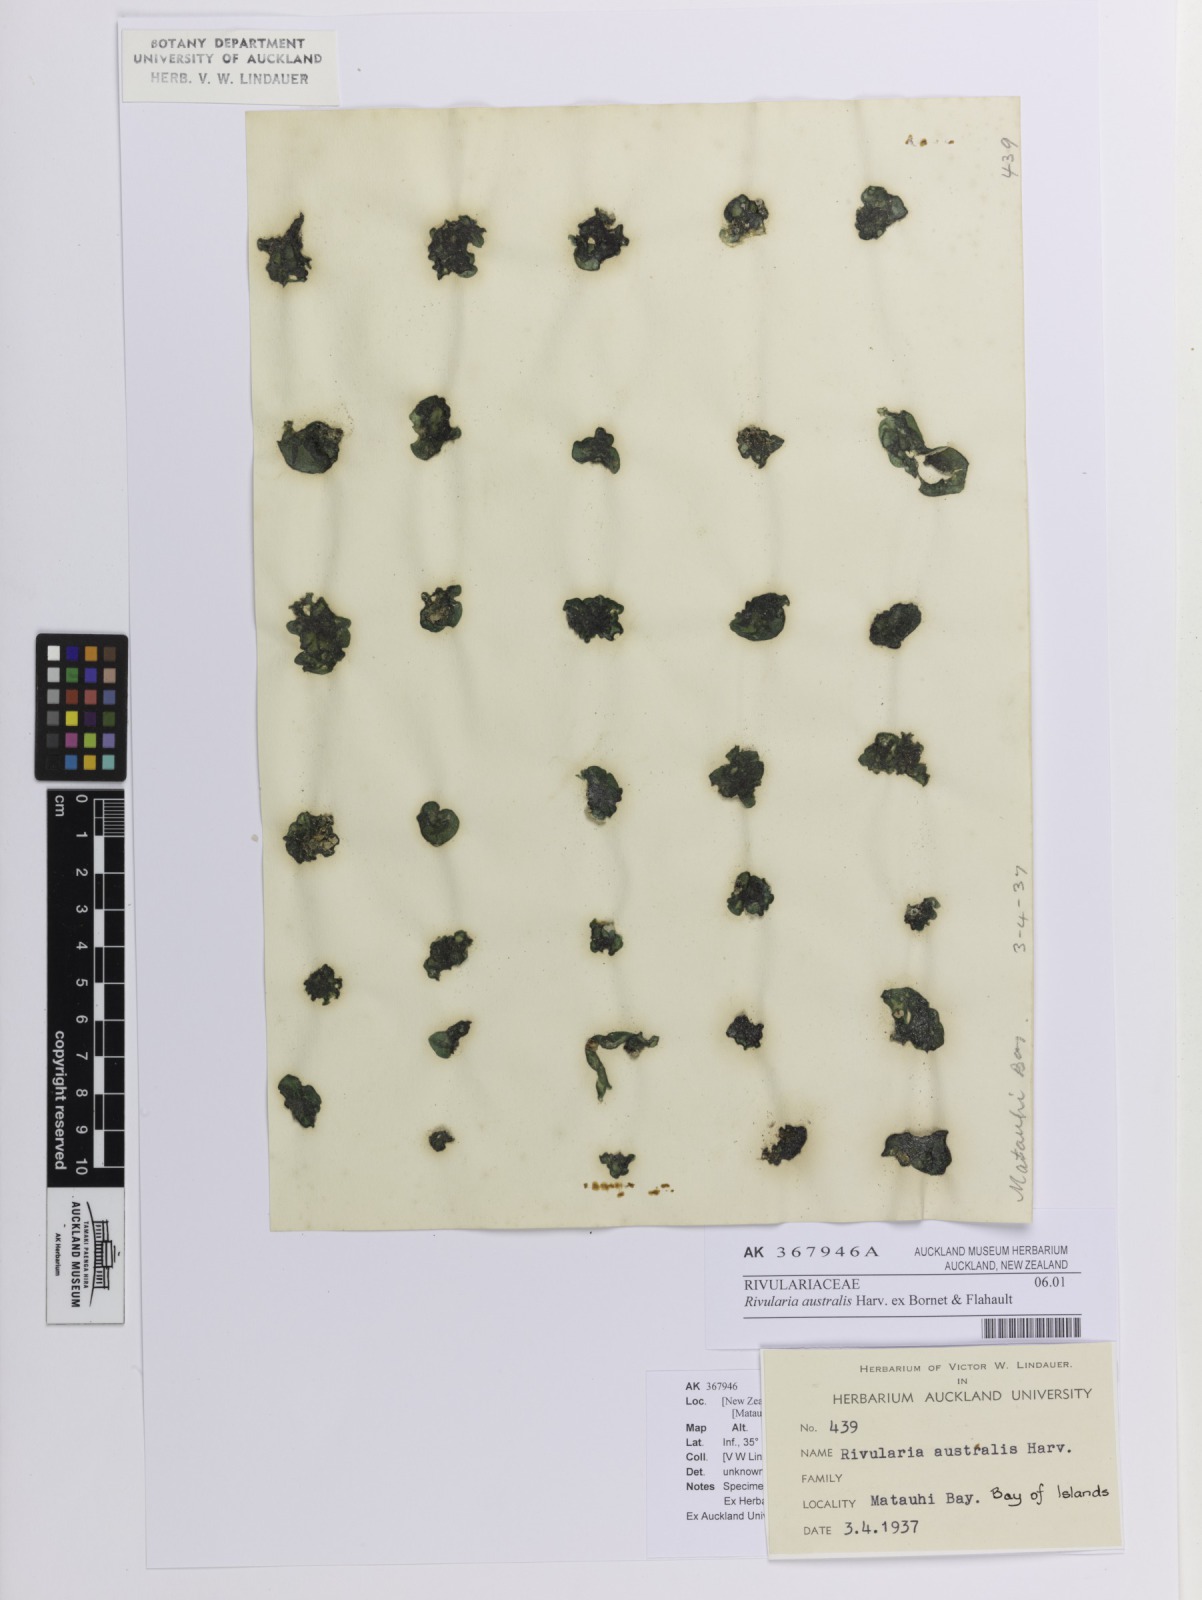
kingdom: Bacteria
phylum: Cyanobacteria
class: Cyanobacteriia
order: Cyanobacteriales
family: Nostocaceae
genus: Rivularia
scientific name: Rivularia australis
